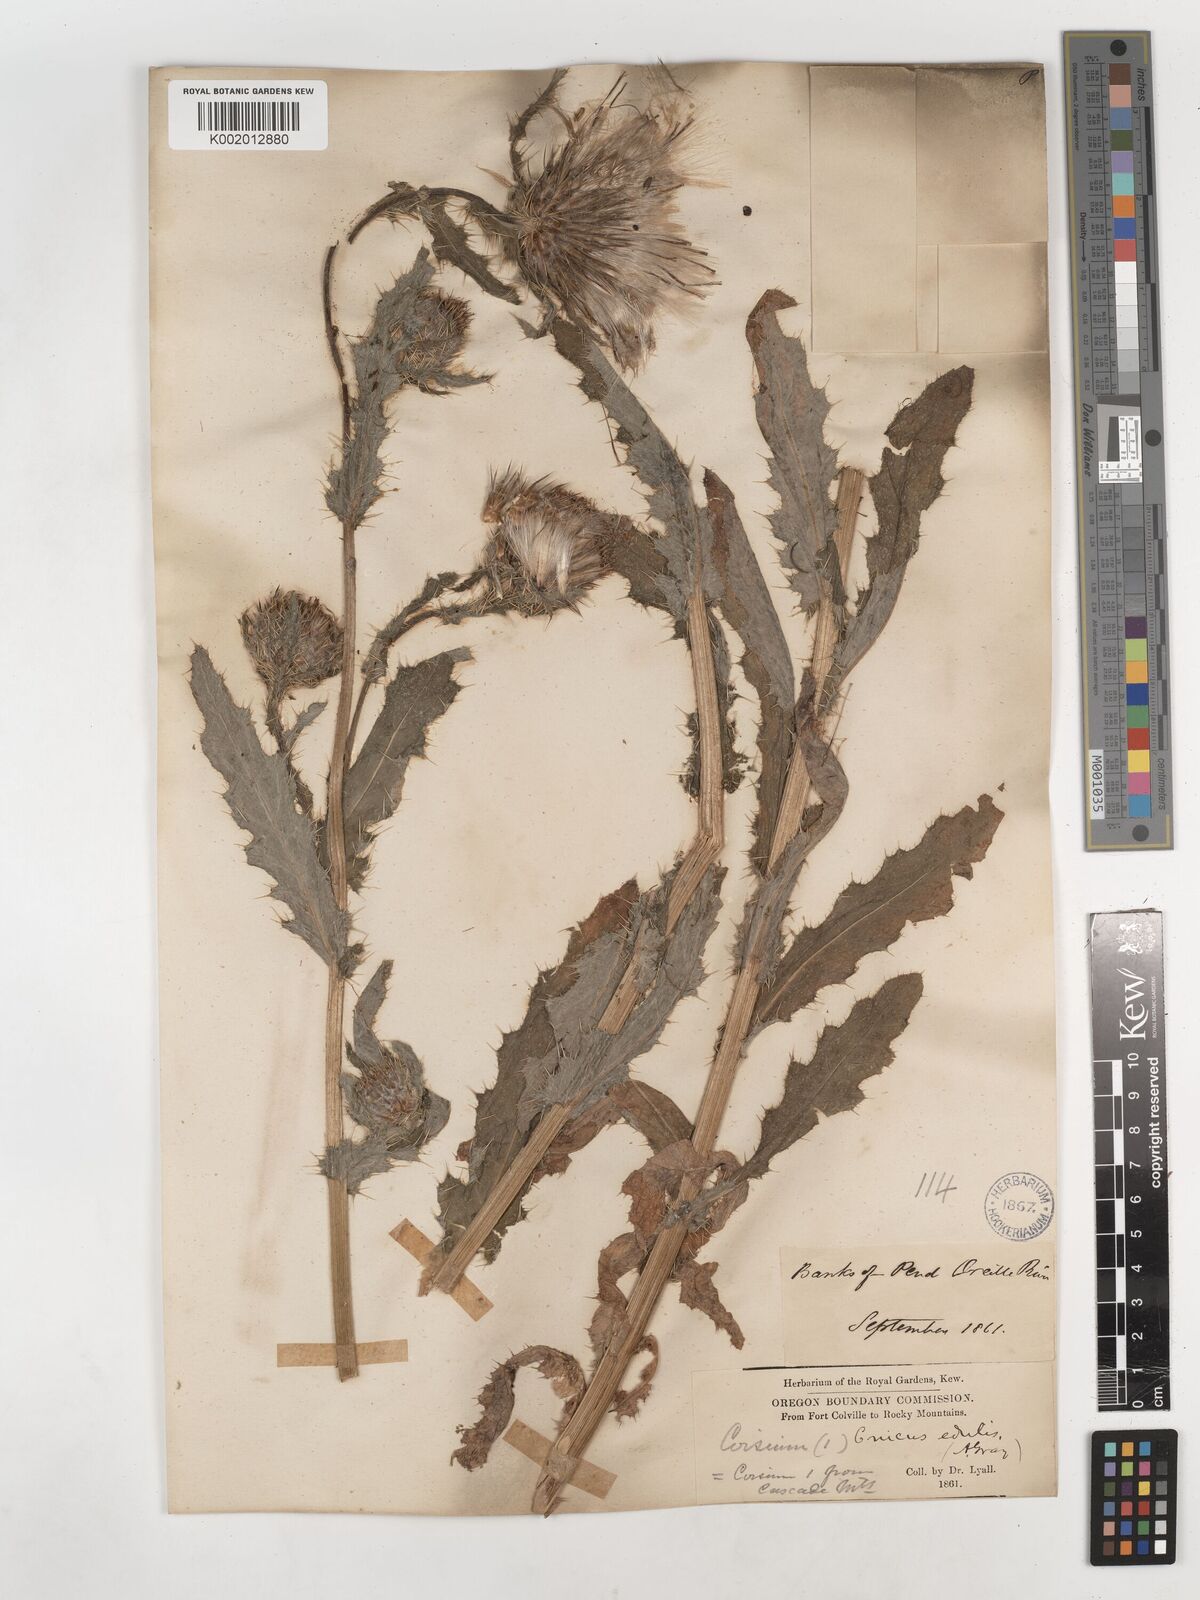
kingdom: Plantae
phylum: Tracheophyta
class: Magnoliopsida
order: Asterales
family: Asteraceae
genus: Cirsium
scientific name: Cirsium edule
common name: Indian thistle
